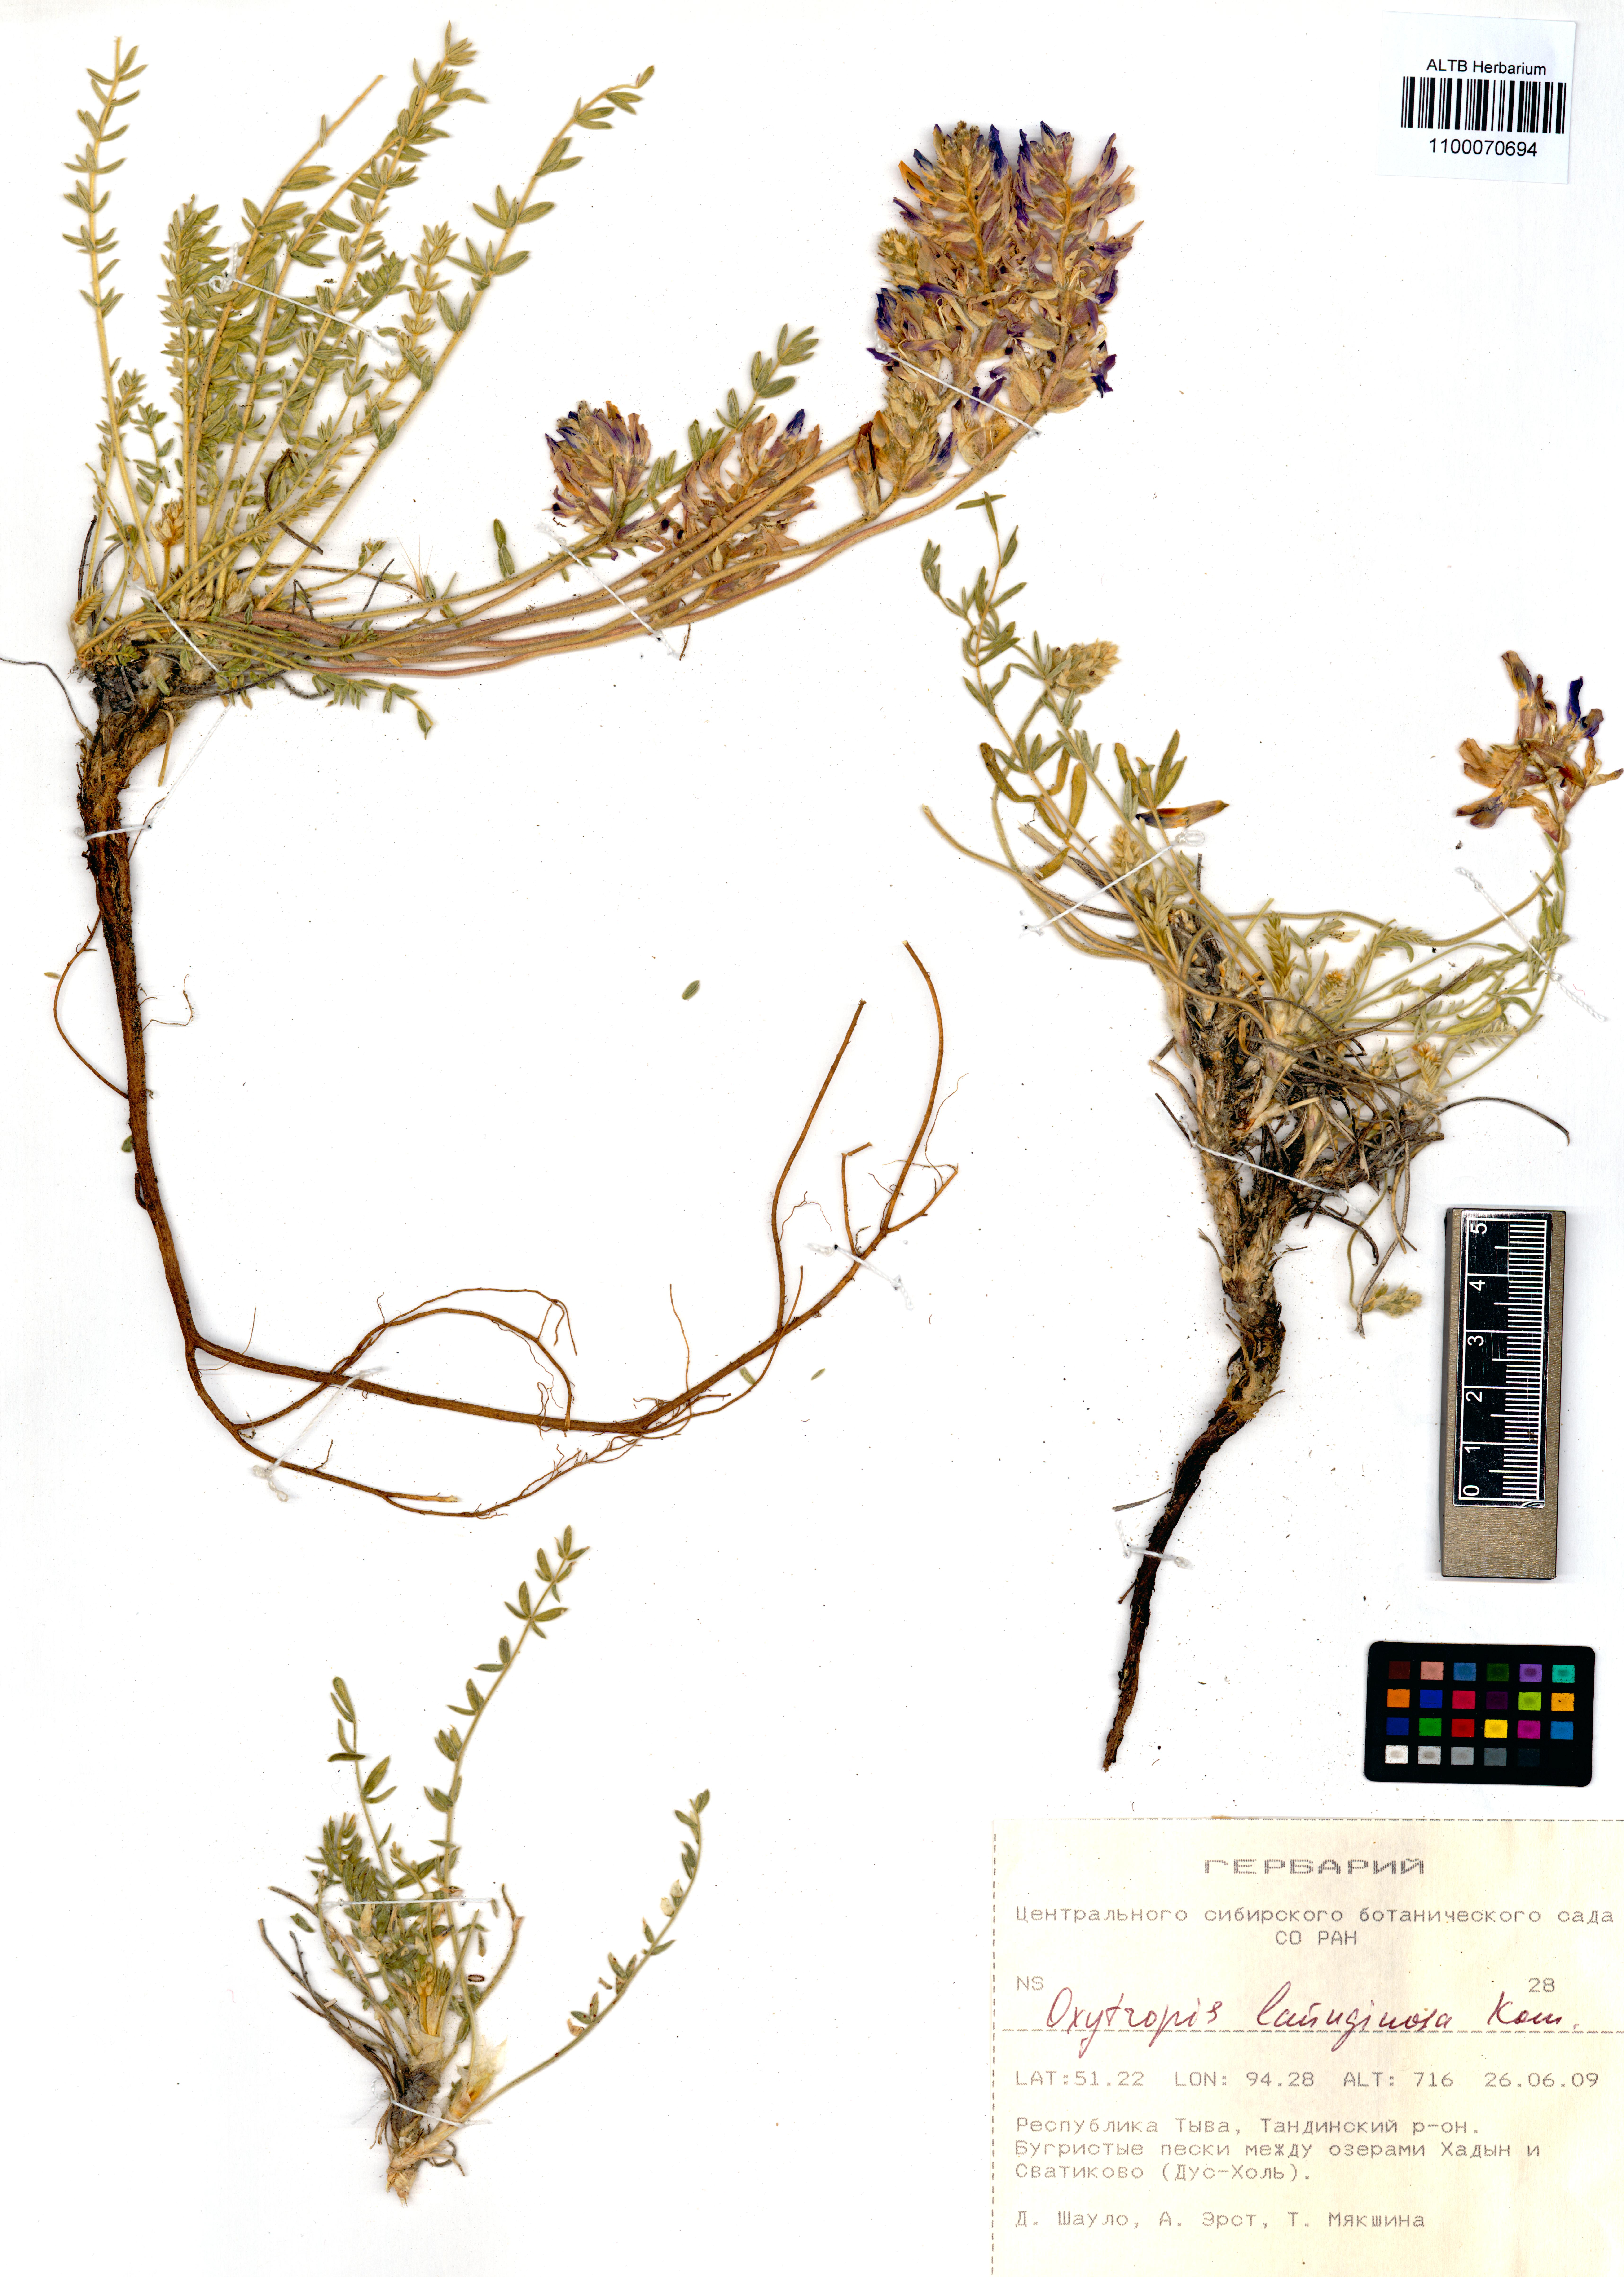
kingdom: Plantae
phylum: Tracheophyta
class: Magnoliopsida
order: Fabales
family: Fabaceae
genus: Oxytropis
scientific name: Oxytropis lanuginosa
